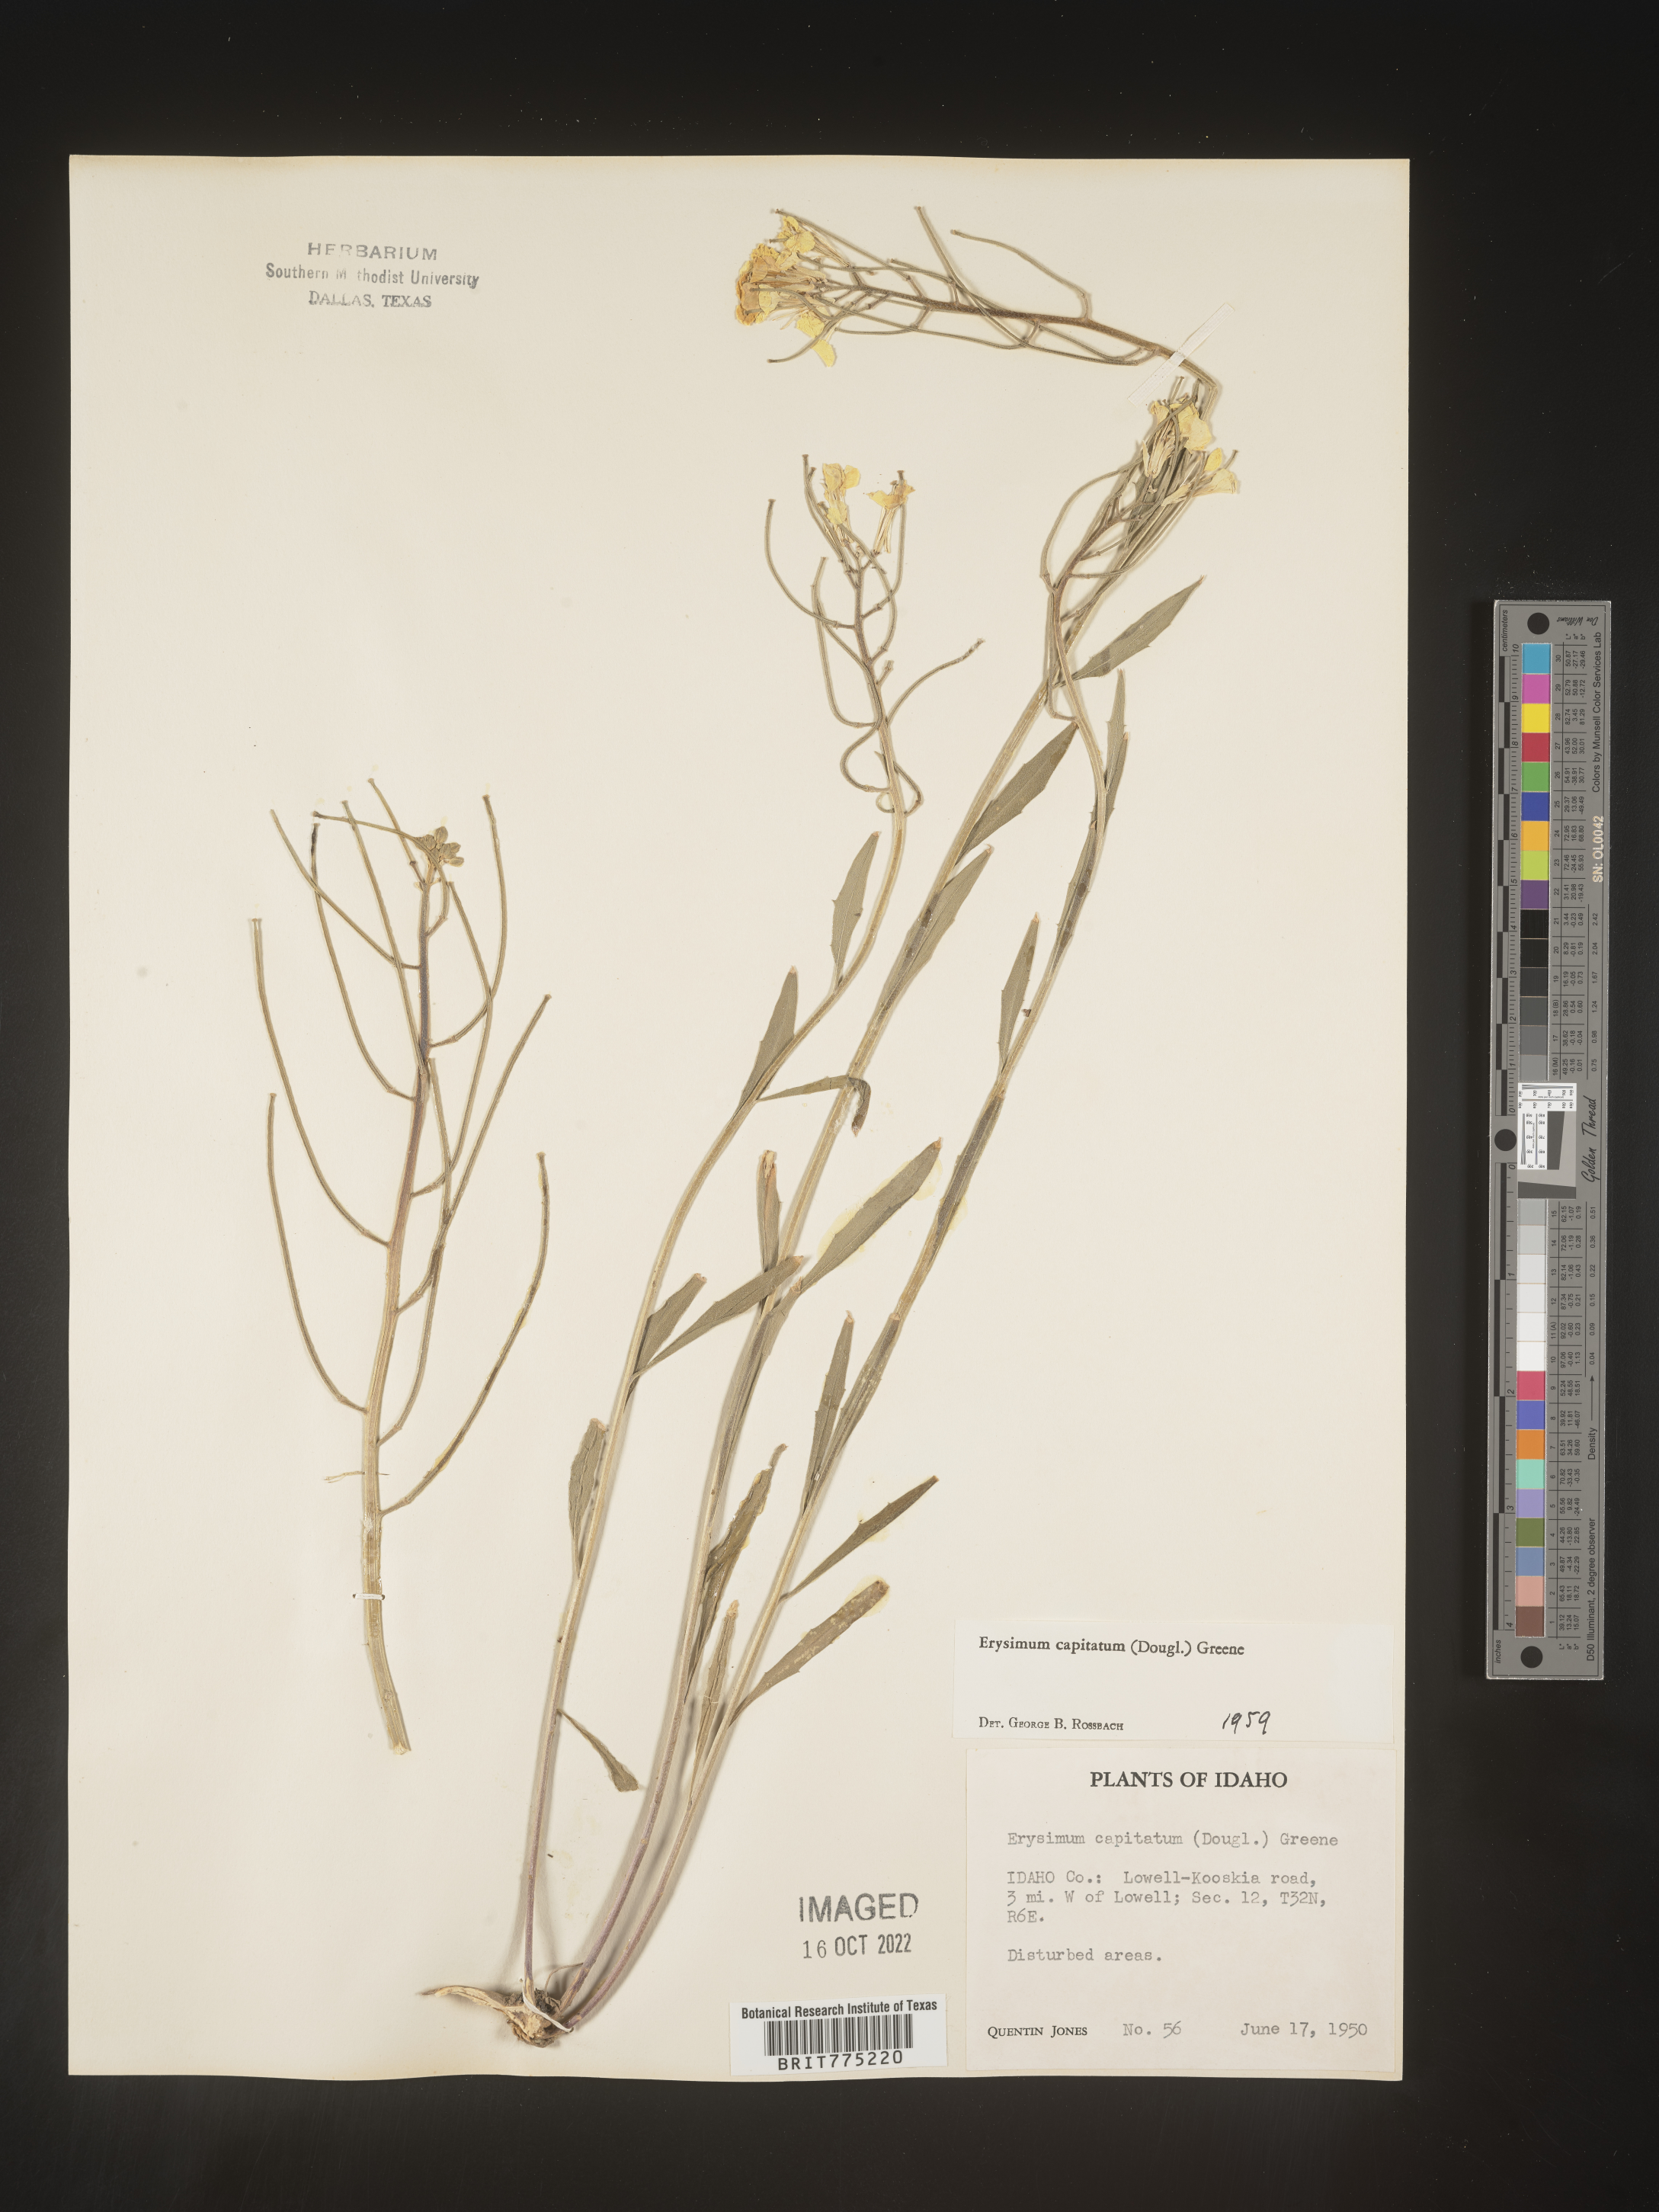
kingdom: Plantae
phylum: Tracheophyta
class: Magnoliopsida
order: Brassicales
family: Brassicaceae
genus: Erysimum
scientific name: Erysimum capitatum
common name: Western wallflower
